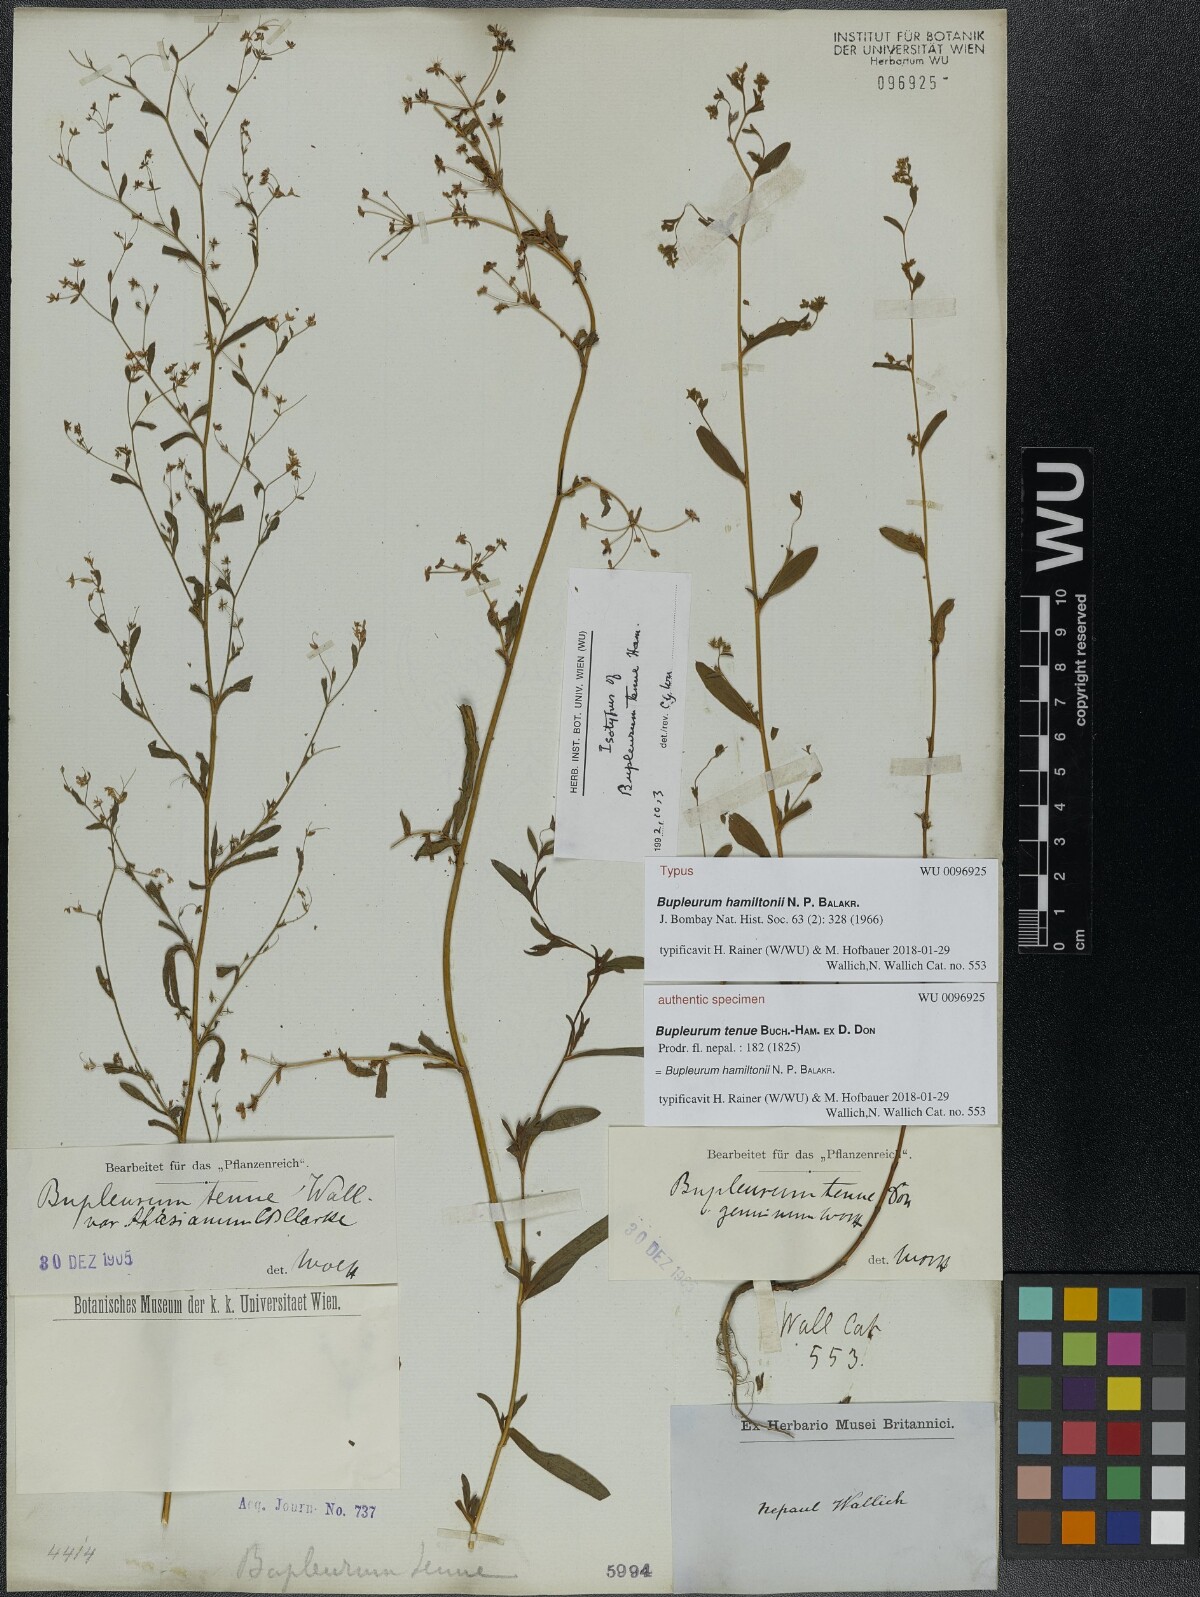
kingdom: Plantae
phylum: Tracheophyta
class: Magnoliopsida
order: Apiales
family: Apiaceae
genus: Bupleurum
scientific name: Bupleurum hamiltonii
